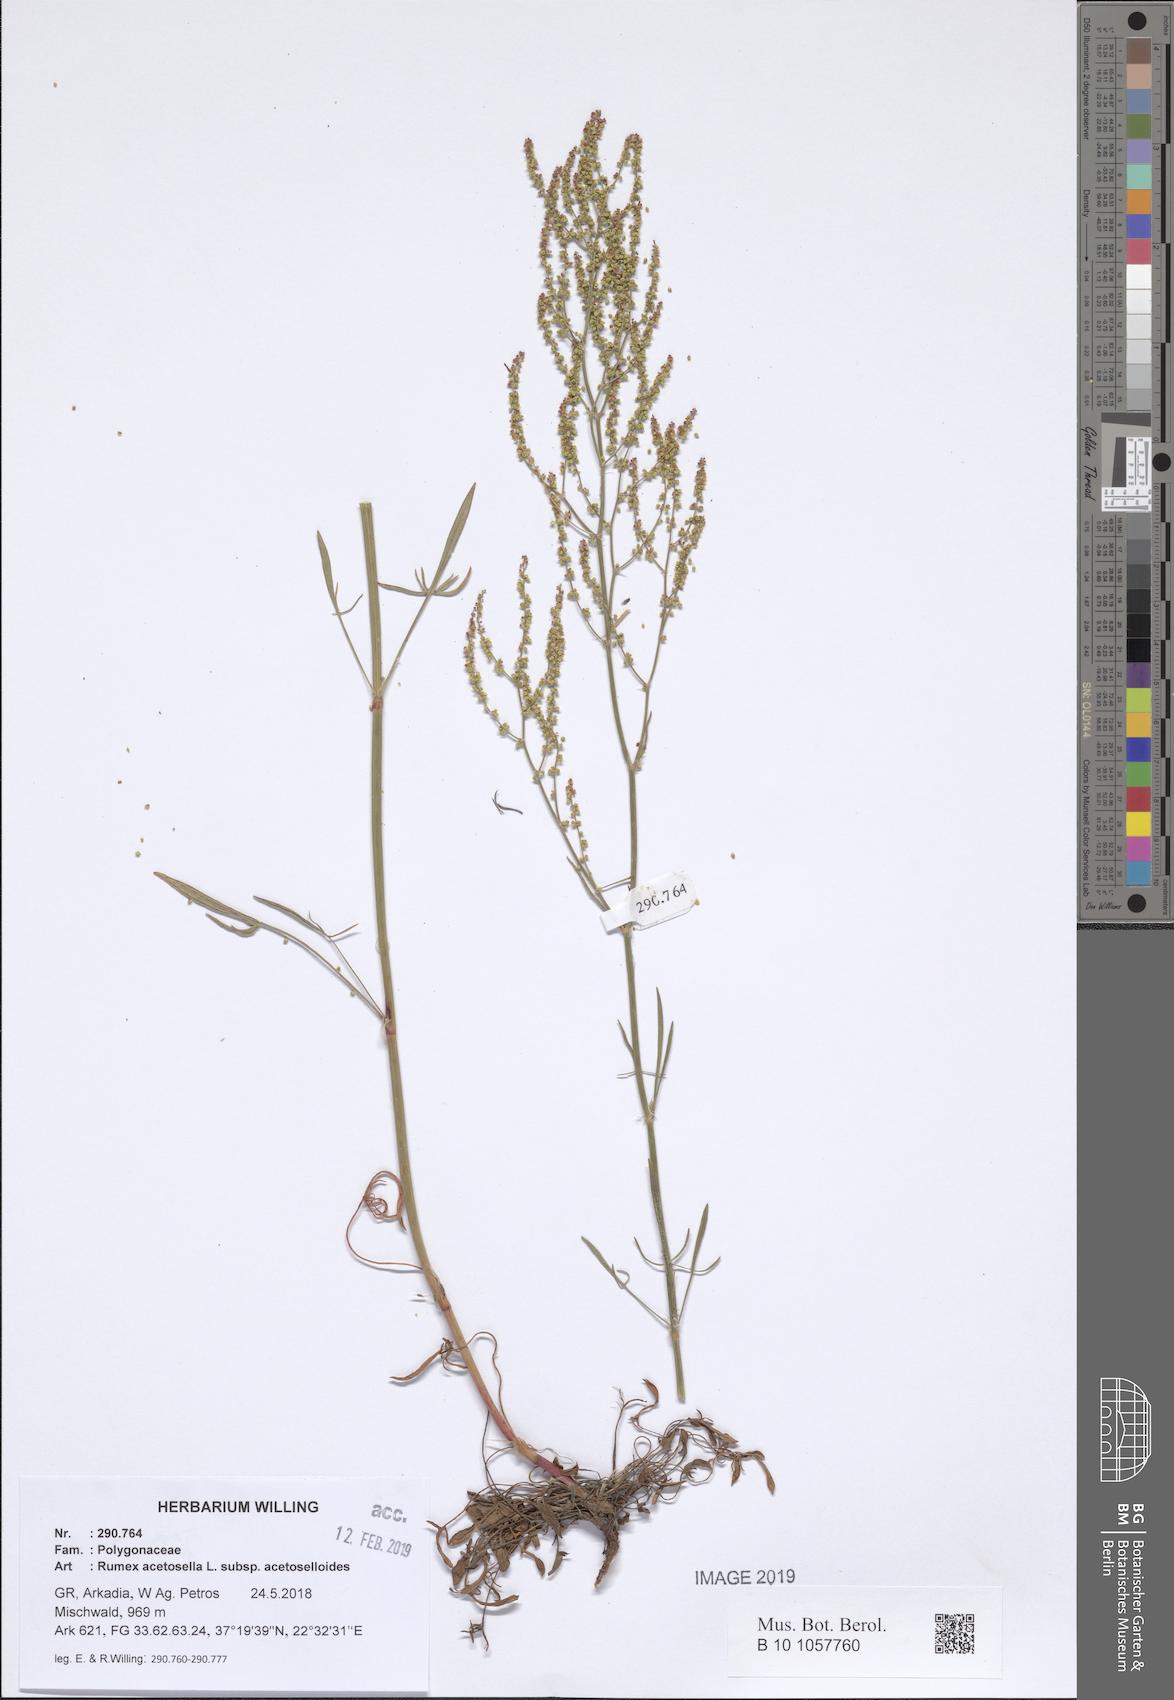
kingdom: Plantae
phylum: Tracheophyta
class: Magnoliopsida
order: Caryophyllales
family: Polygonaceae
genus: Rumex
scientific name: Rumex acetosella
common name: Common sheep sorrel
